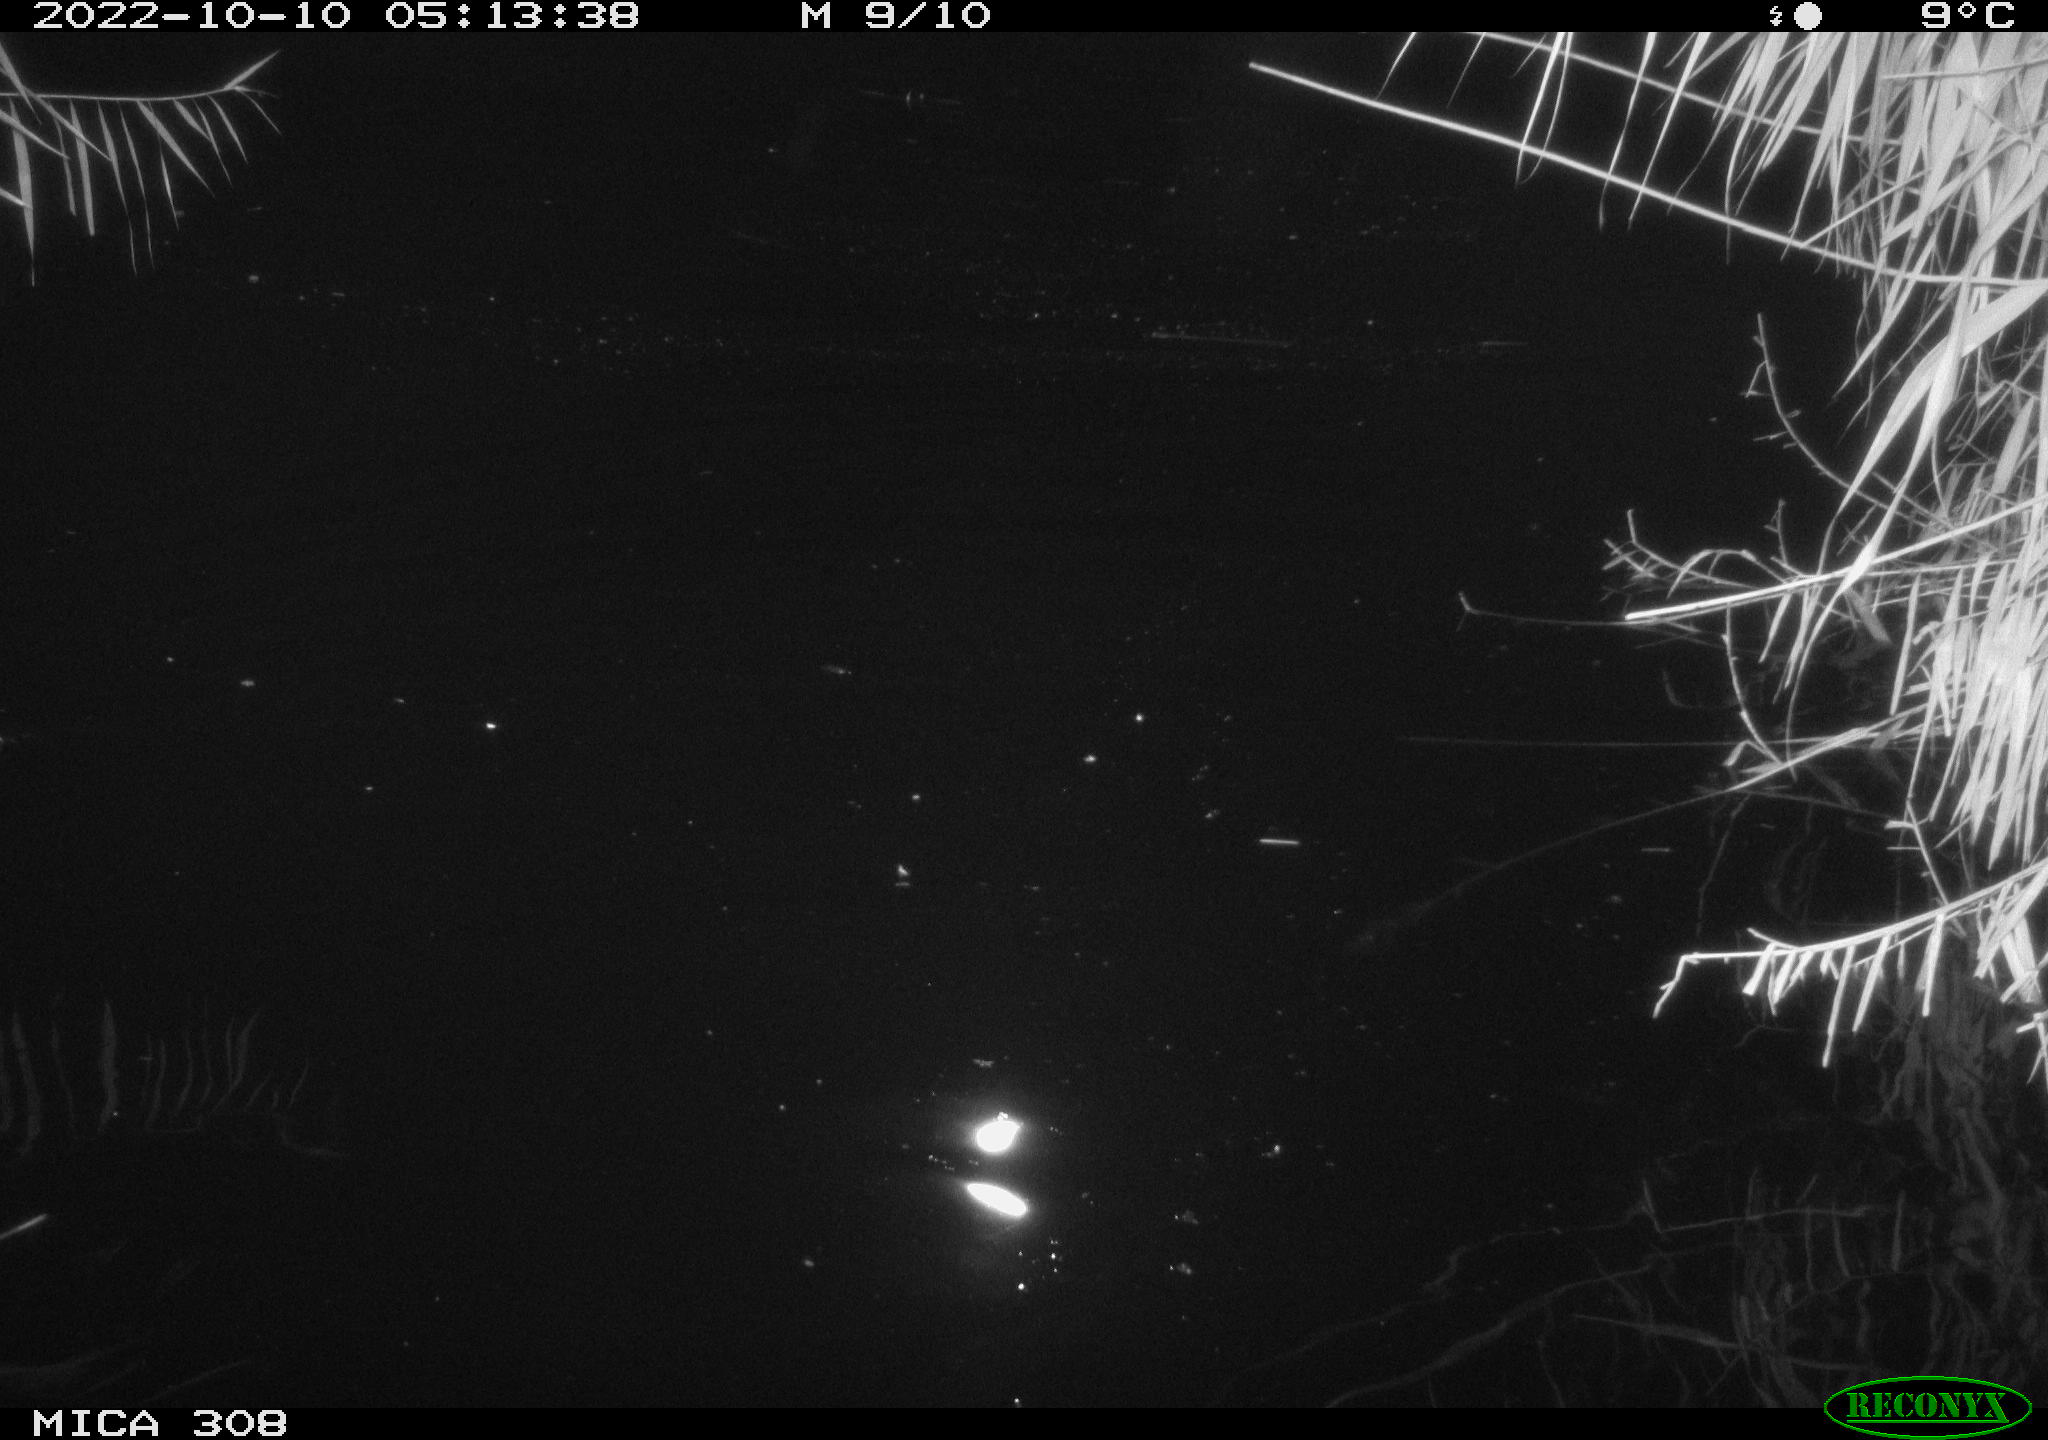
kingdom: Animalia
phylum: Chordata
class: Mammalia
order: Rodentia
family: Cricetidae
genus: Ondatra
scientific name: Ondatra zibethicus
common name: Muskrat
